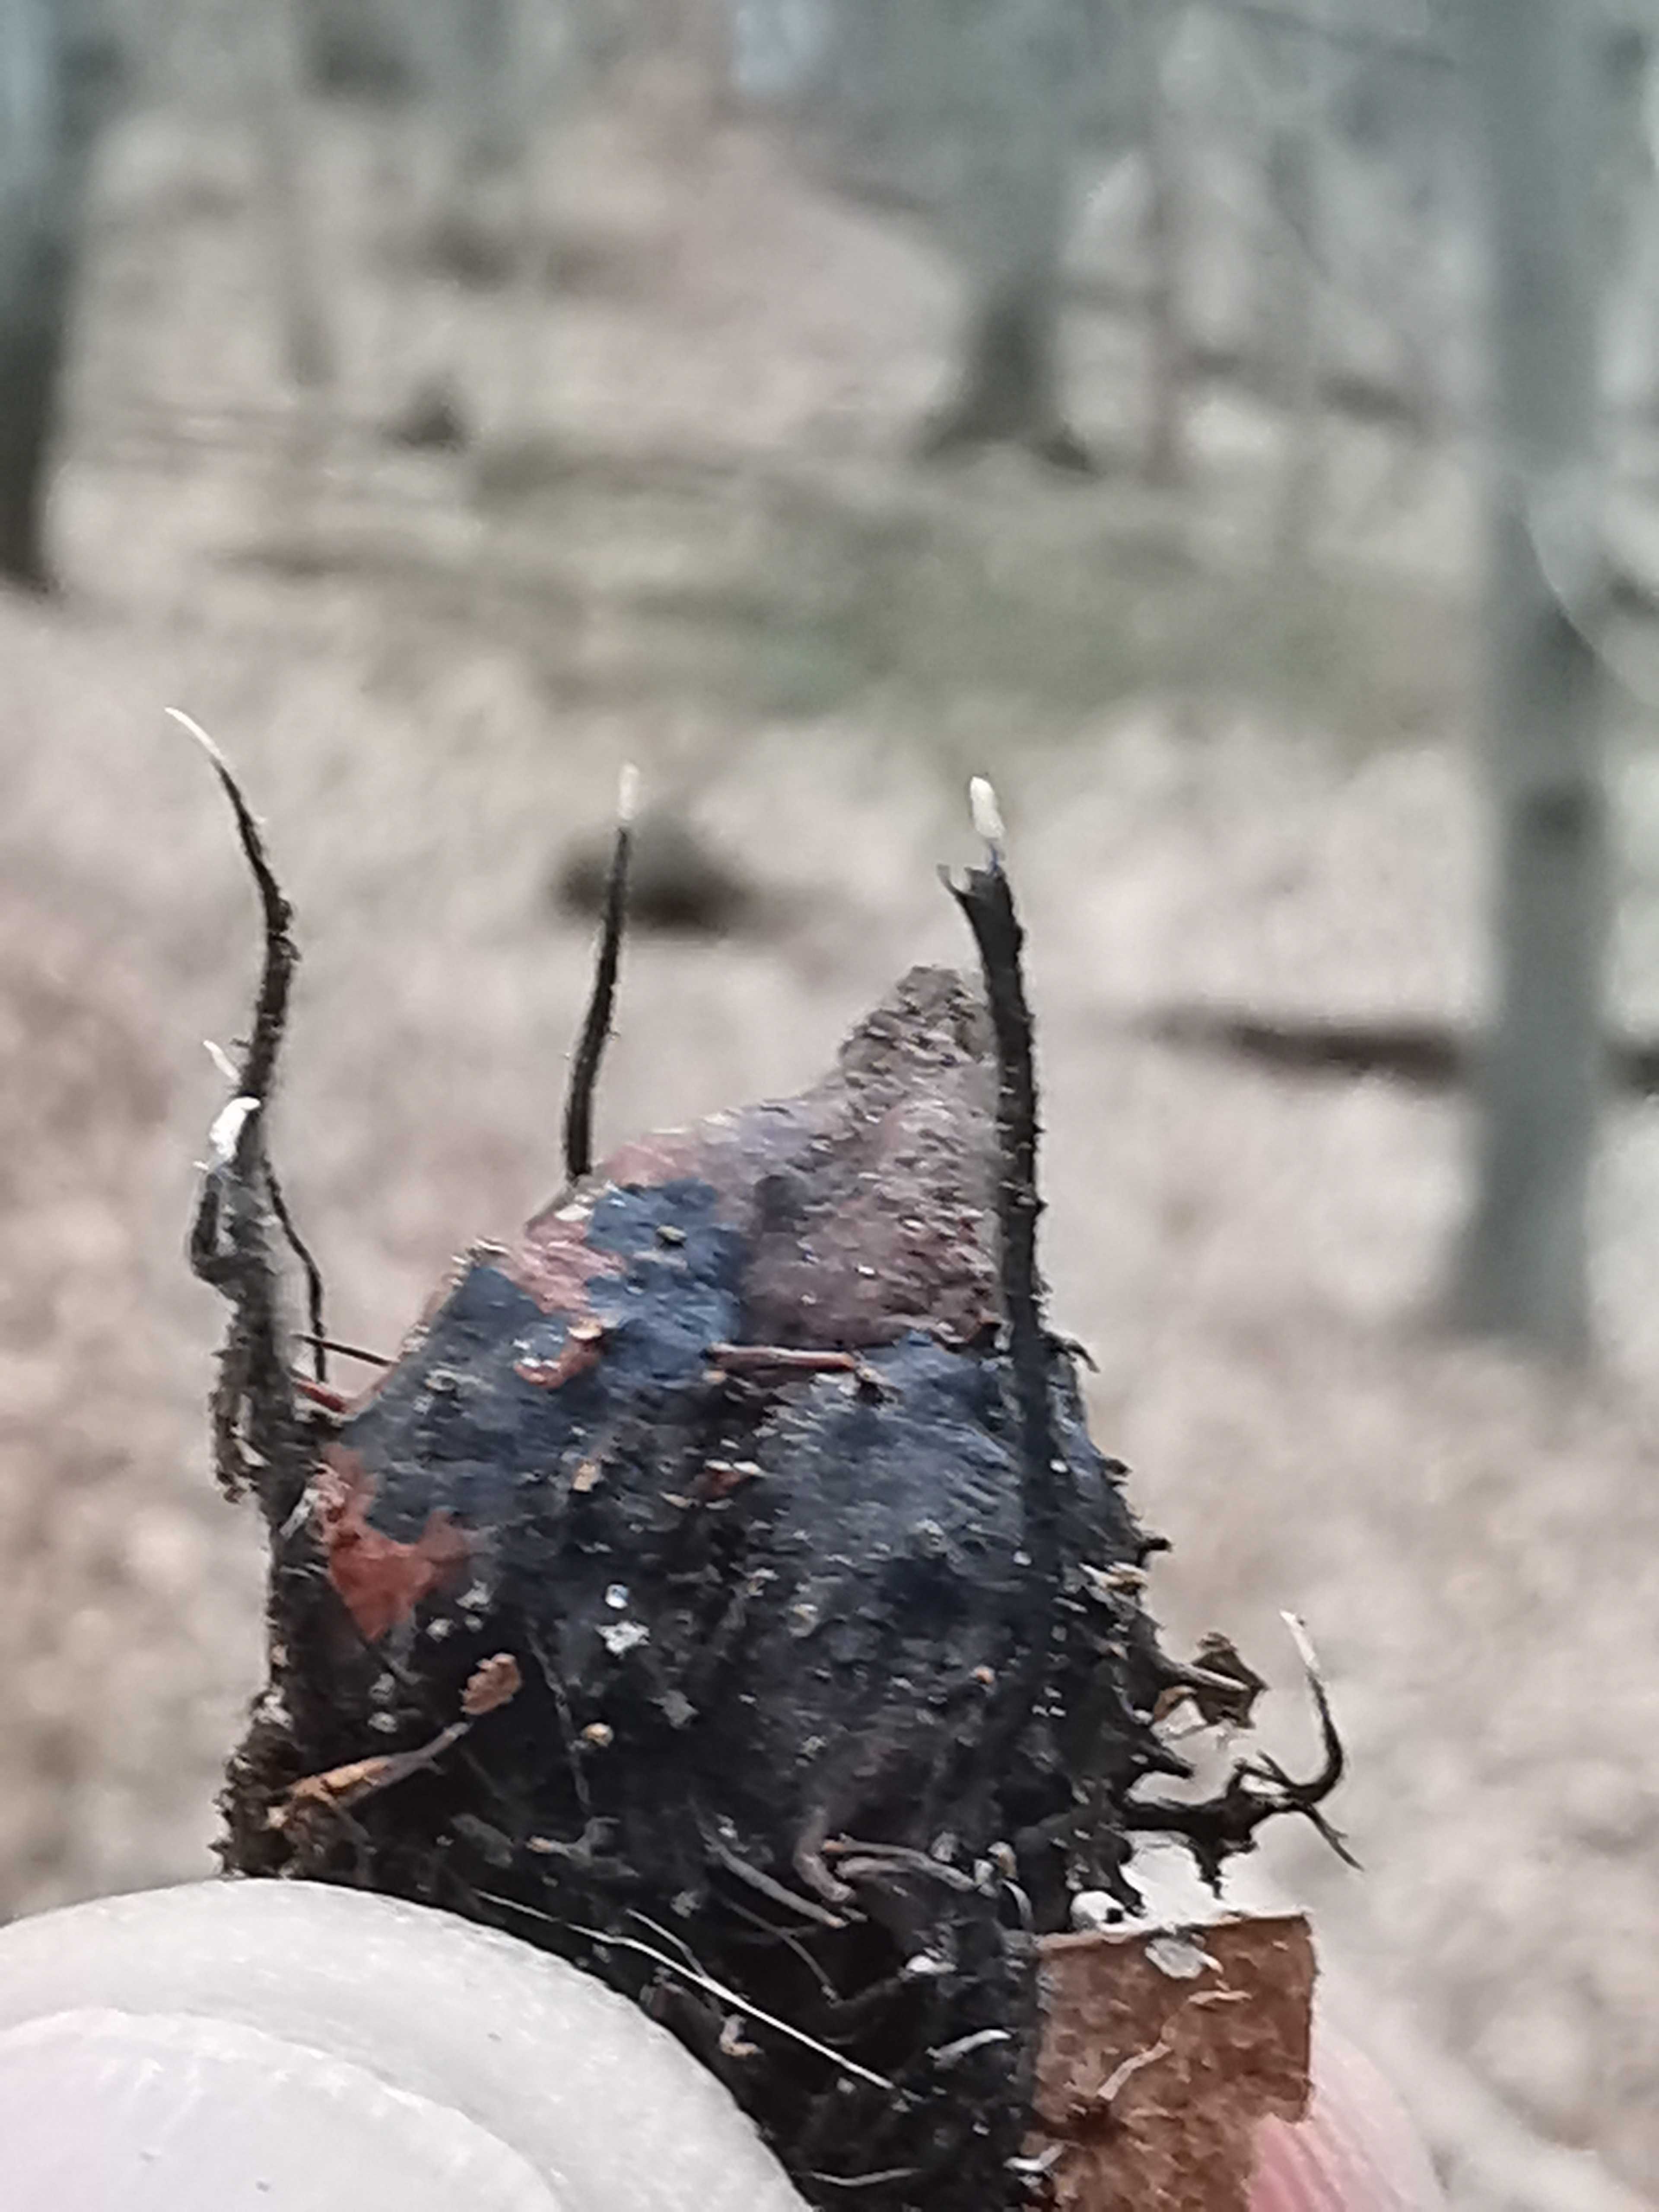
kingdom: Fungi
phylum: Ascomycota
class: Sordariomycetes
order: Xylariales
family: Xylariaceae
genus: Xylaria
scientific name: Xylaria carpophila
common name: bogskål-stødsvamp
